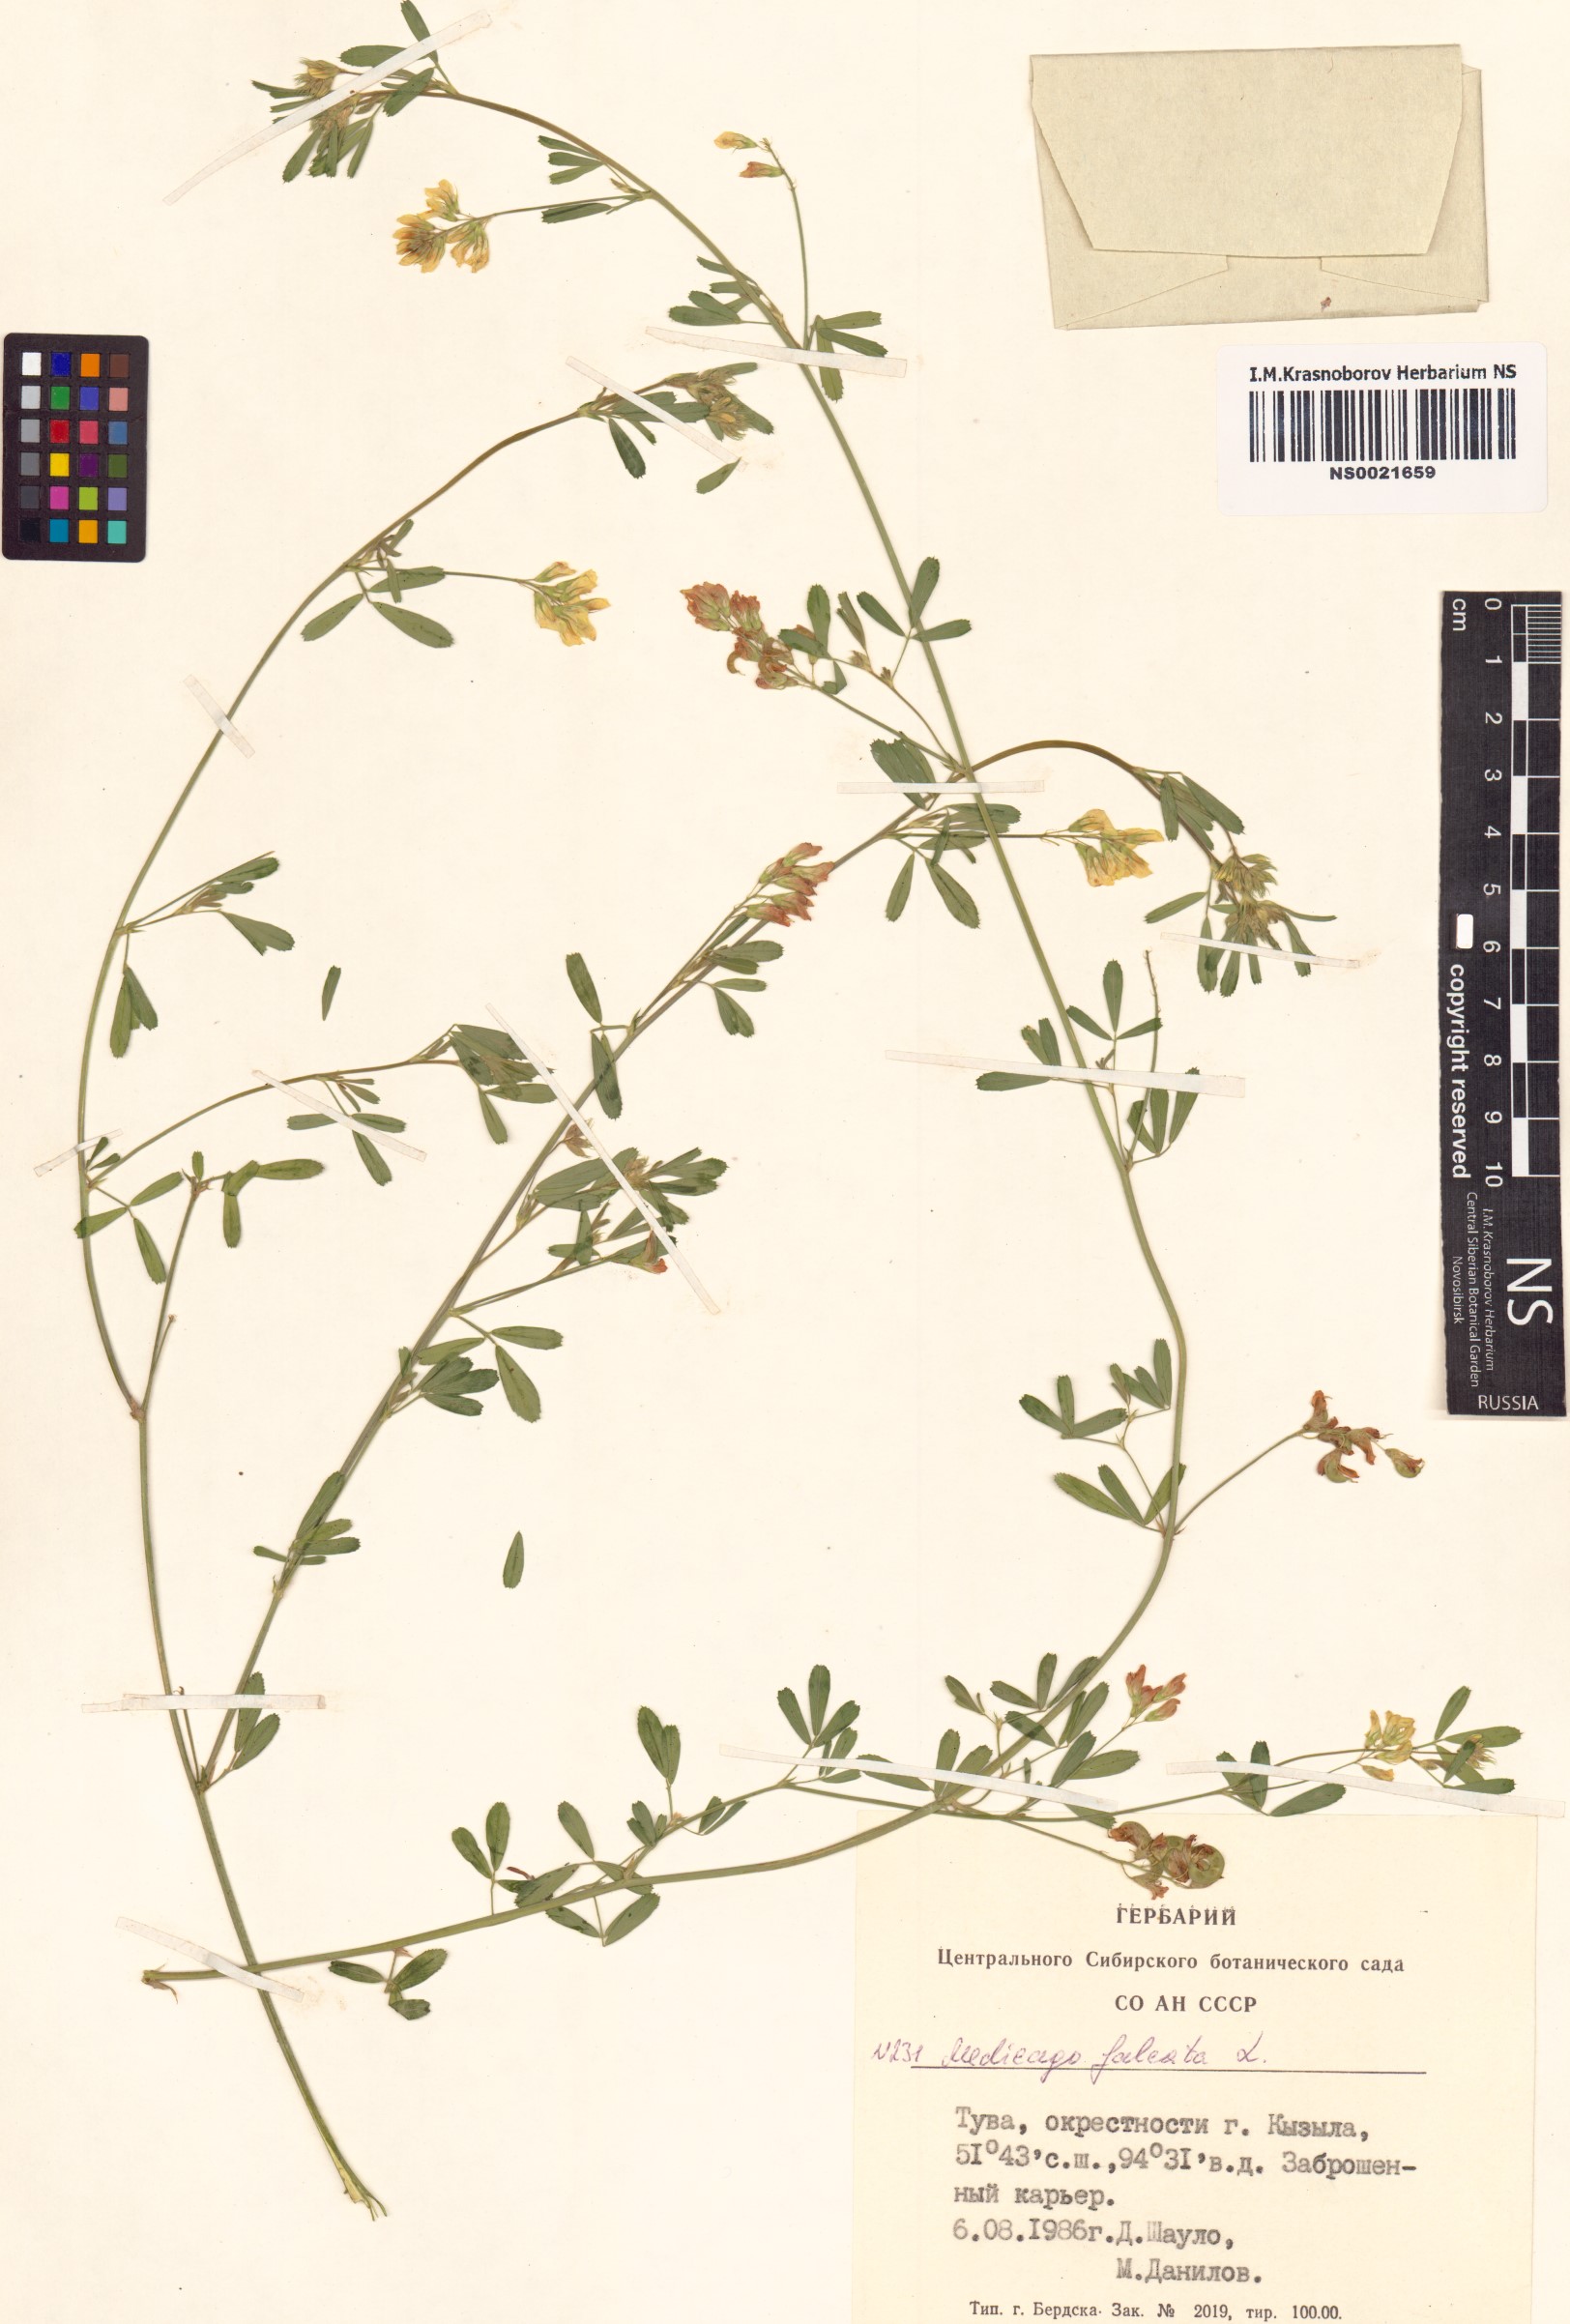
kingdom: Plantae
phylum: Tracheophyta
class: Magnoliopsida
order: Fabales
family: Fabaceae
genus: Medicago
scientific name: Medicago falcata
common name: Sickle medick
